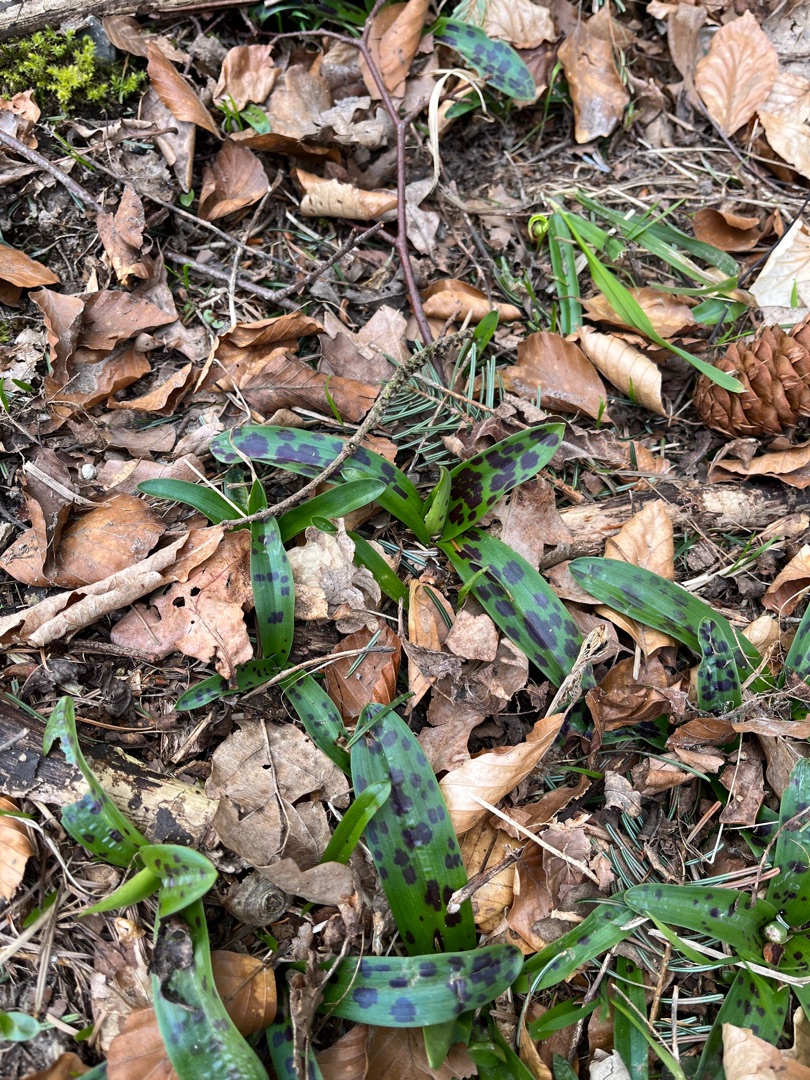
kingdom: Plantae
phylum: Tracheophyta
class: Liliopsida
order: Asparagales
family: Orchidaceae
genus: Orchis
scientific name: Orchis mascula
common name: Tyndakset gøgeurt
